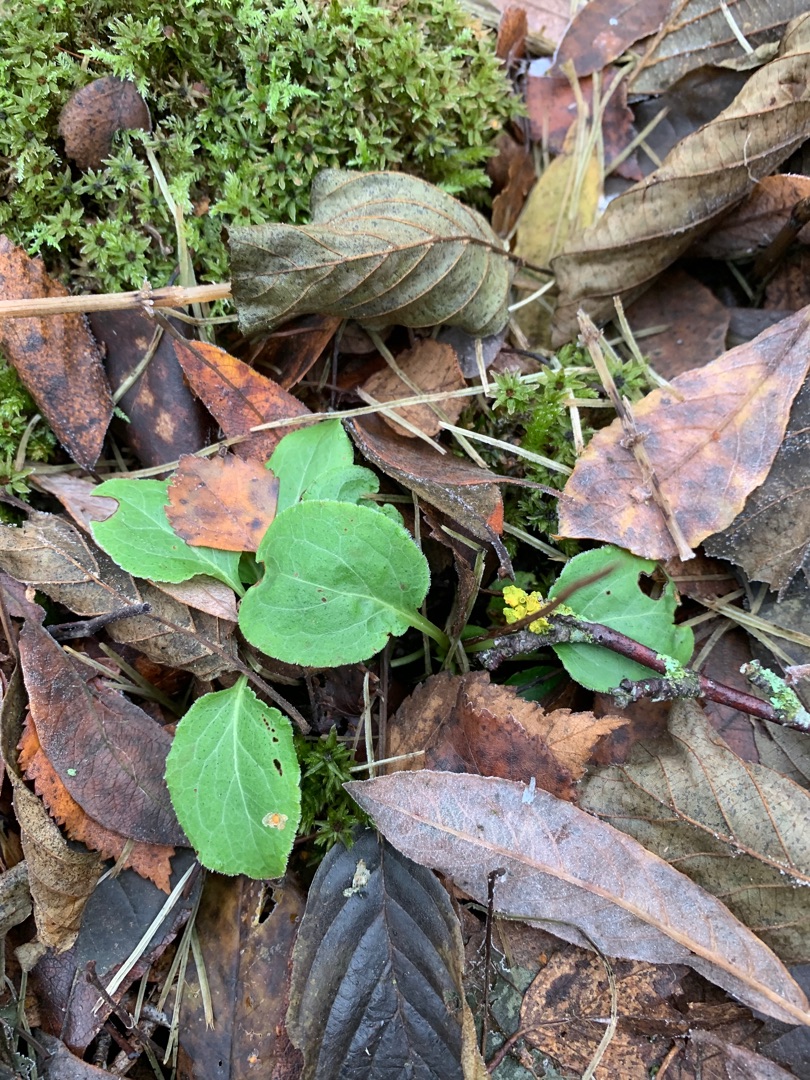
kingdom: Plantae
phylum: Tracheophyta
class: Magnoliopsida
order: Ericales
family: Ericaceae
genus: Pyrola
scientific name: Pyrola minor
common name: Liden vintergrøn
